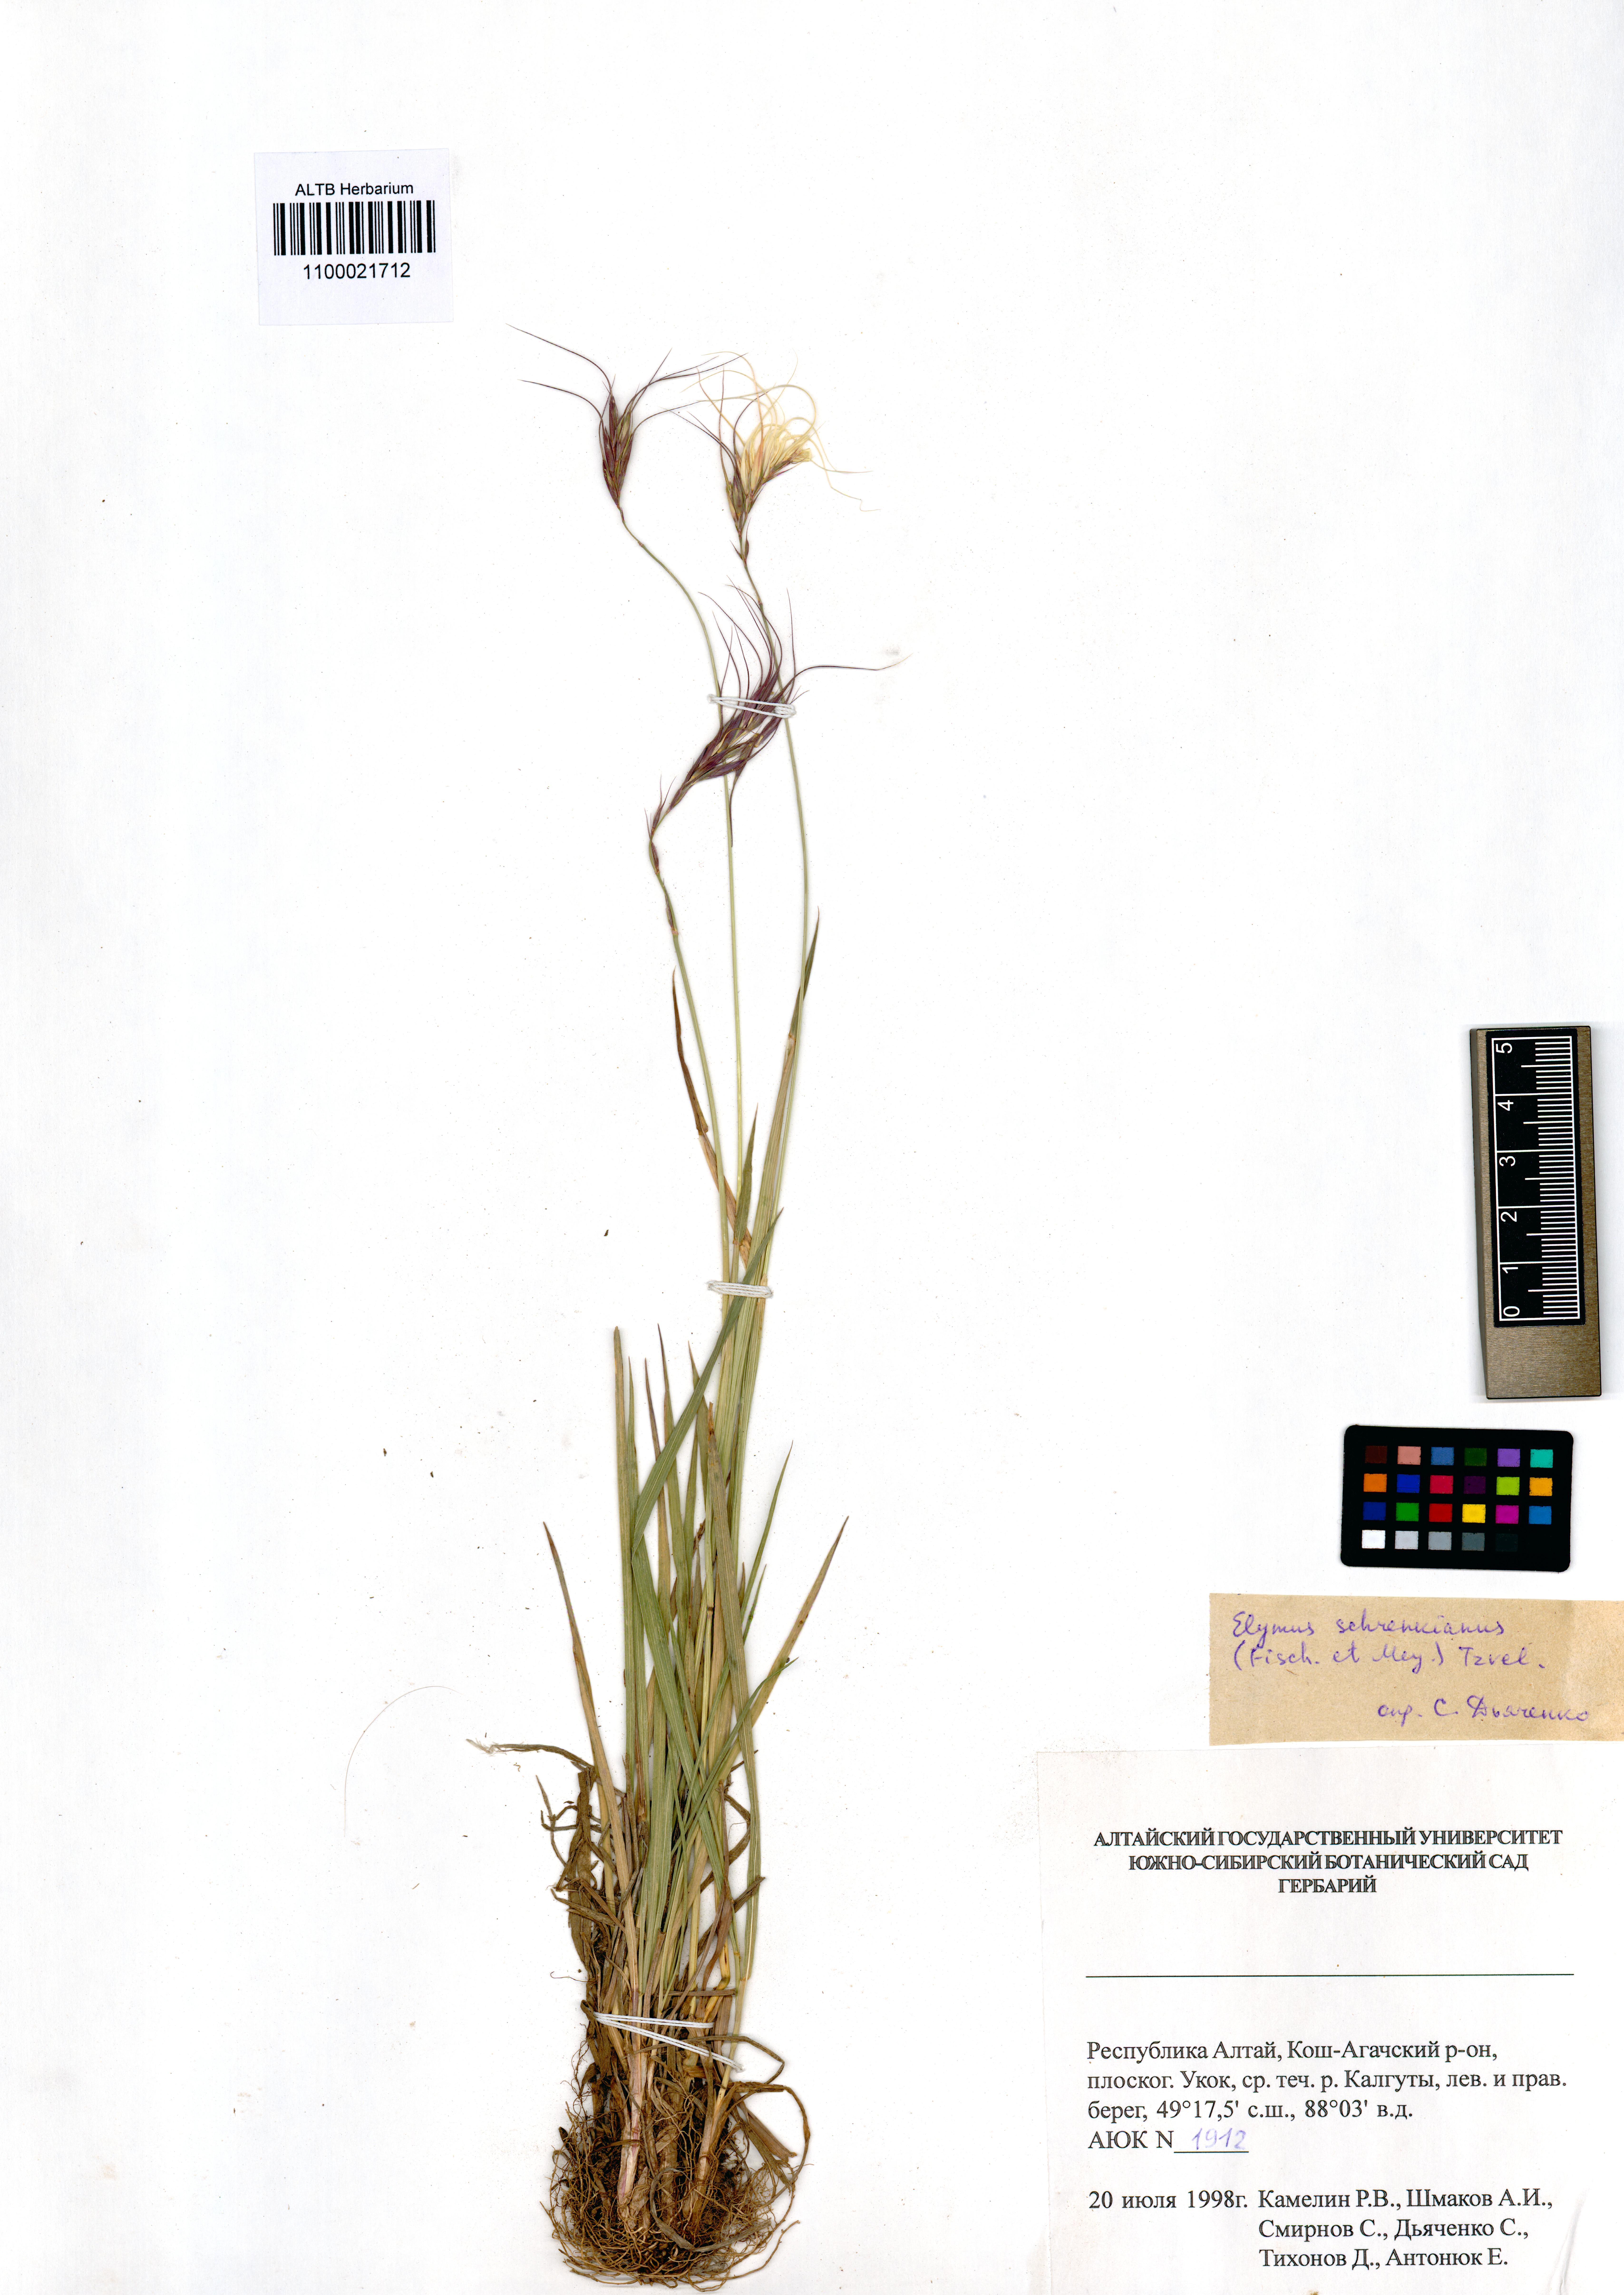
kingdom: Plantae
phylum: Tracheophyta
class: Liliopsida
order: Poales
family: Poaceae
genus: Campeiostachys
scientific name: Campeiostachys schrenkiana
